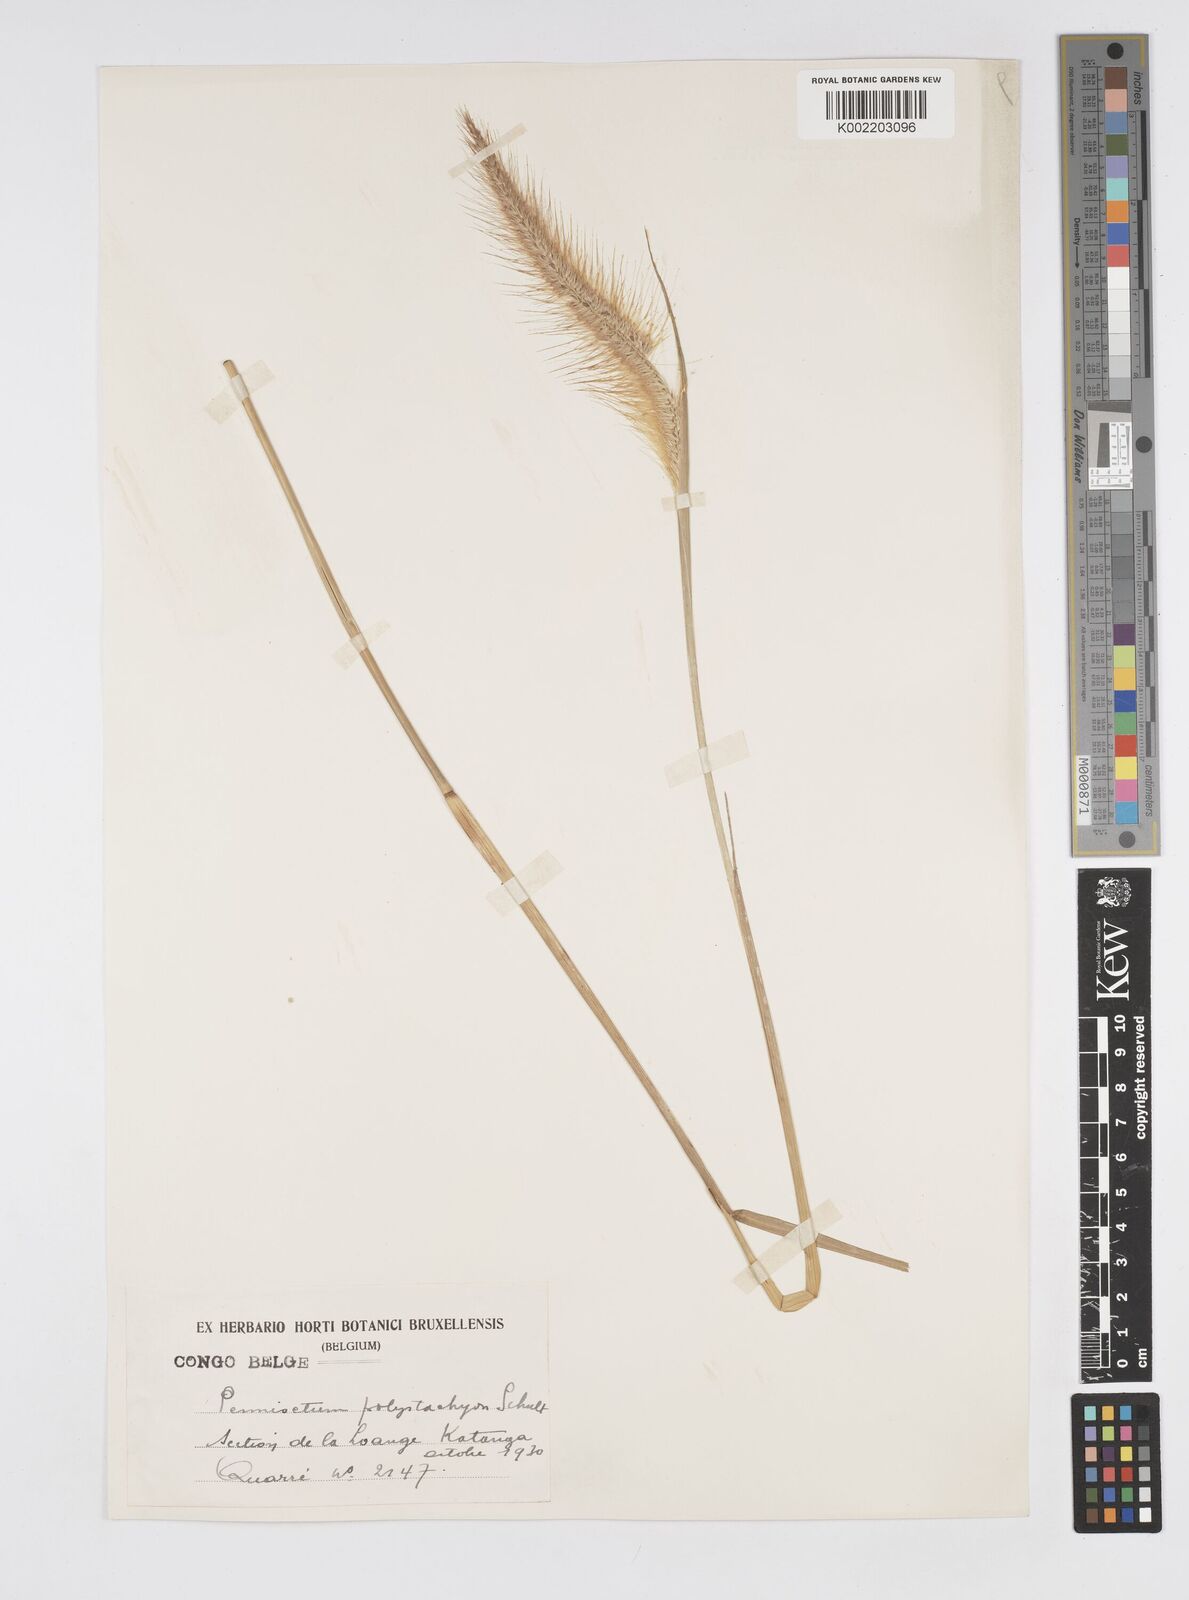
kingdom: Plantae
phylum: Tracheophyta
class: Liliopsida
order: Poales
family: Poaceae
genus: Setaria
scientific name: Setaria parviflora
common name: Knotroot bristle-grass
